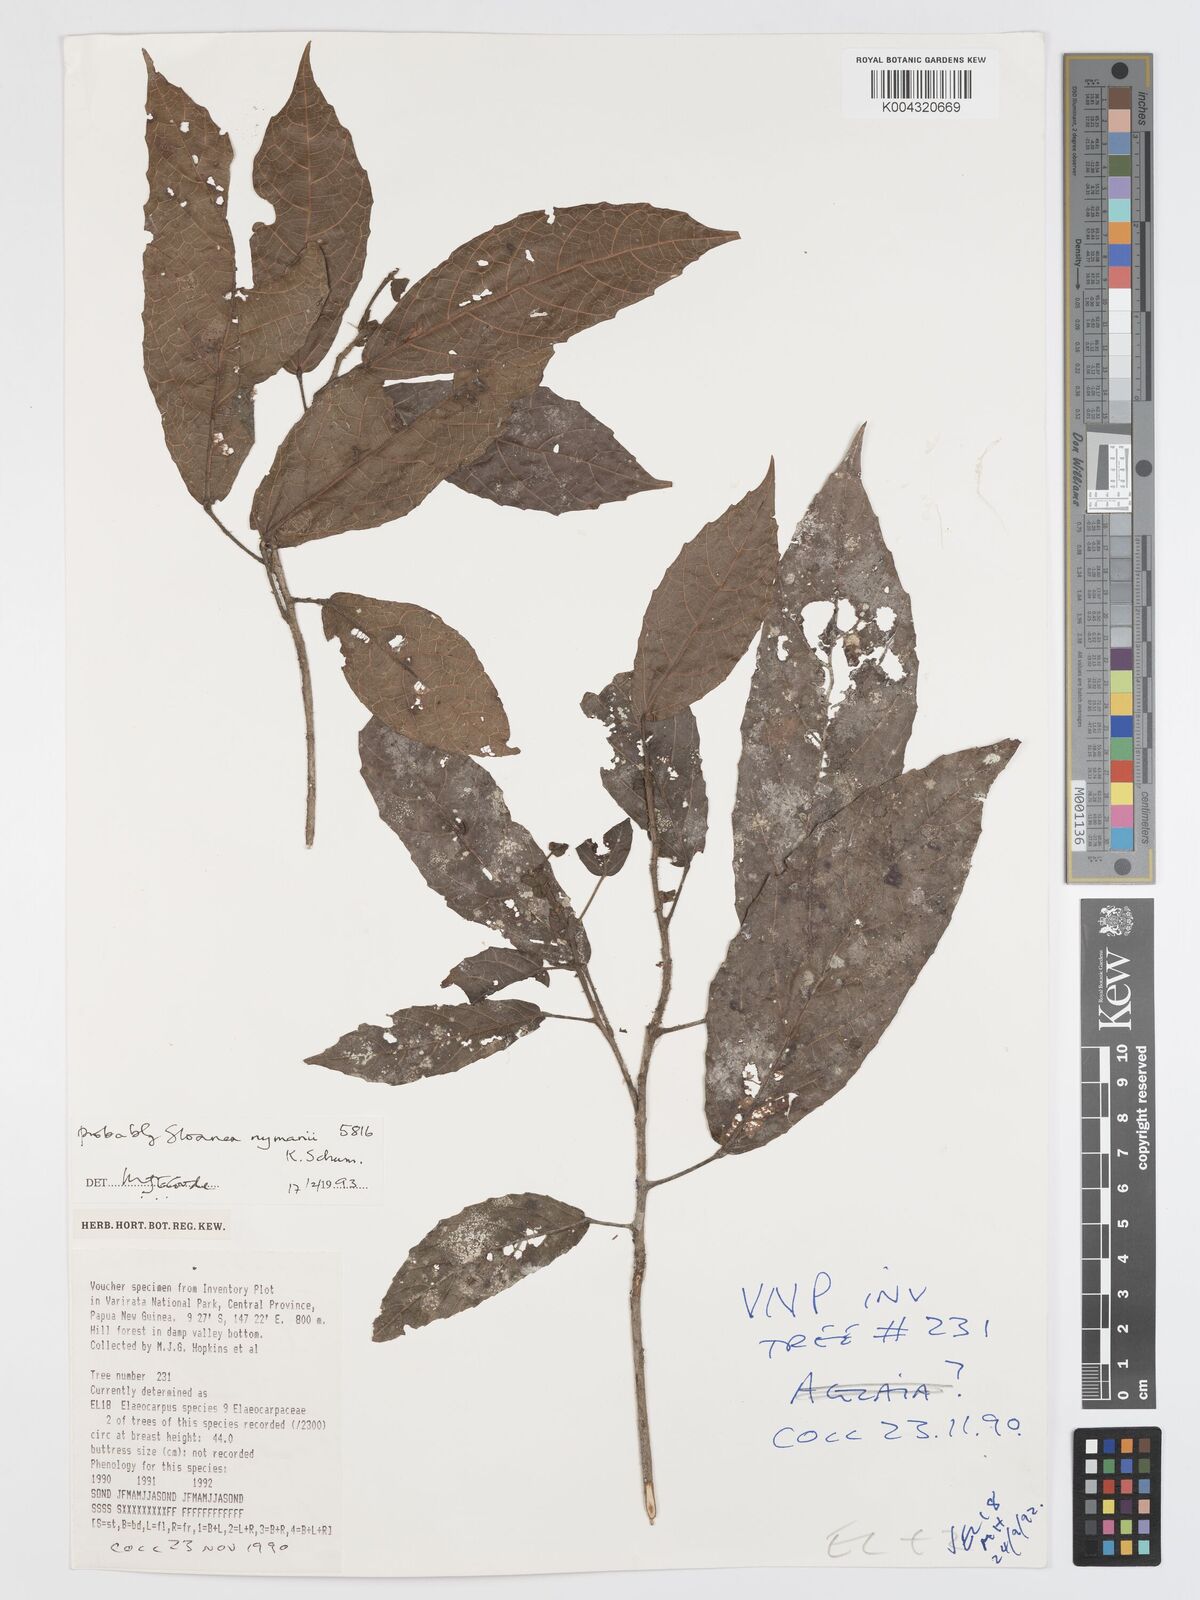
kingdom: Plantae
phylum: Tracheophyta
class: Magnoliopsida
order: Oxalidales
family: Elaeocarpaceae
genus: Sloanea
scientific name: Sloanea nymanii
